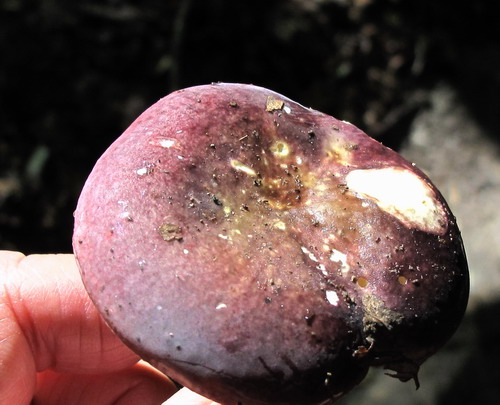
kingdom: Fungi
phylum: Basidiomycota
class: Agaricomycetes
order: Russulales
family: Russulaceae
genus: Russula
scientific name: Russula brunneoviolacea
